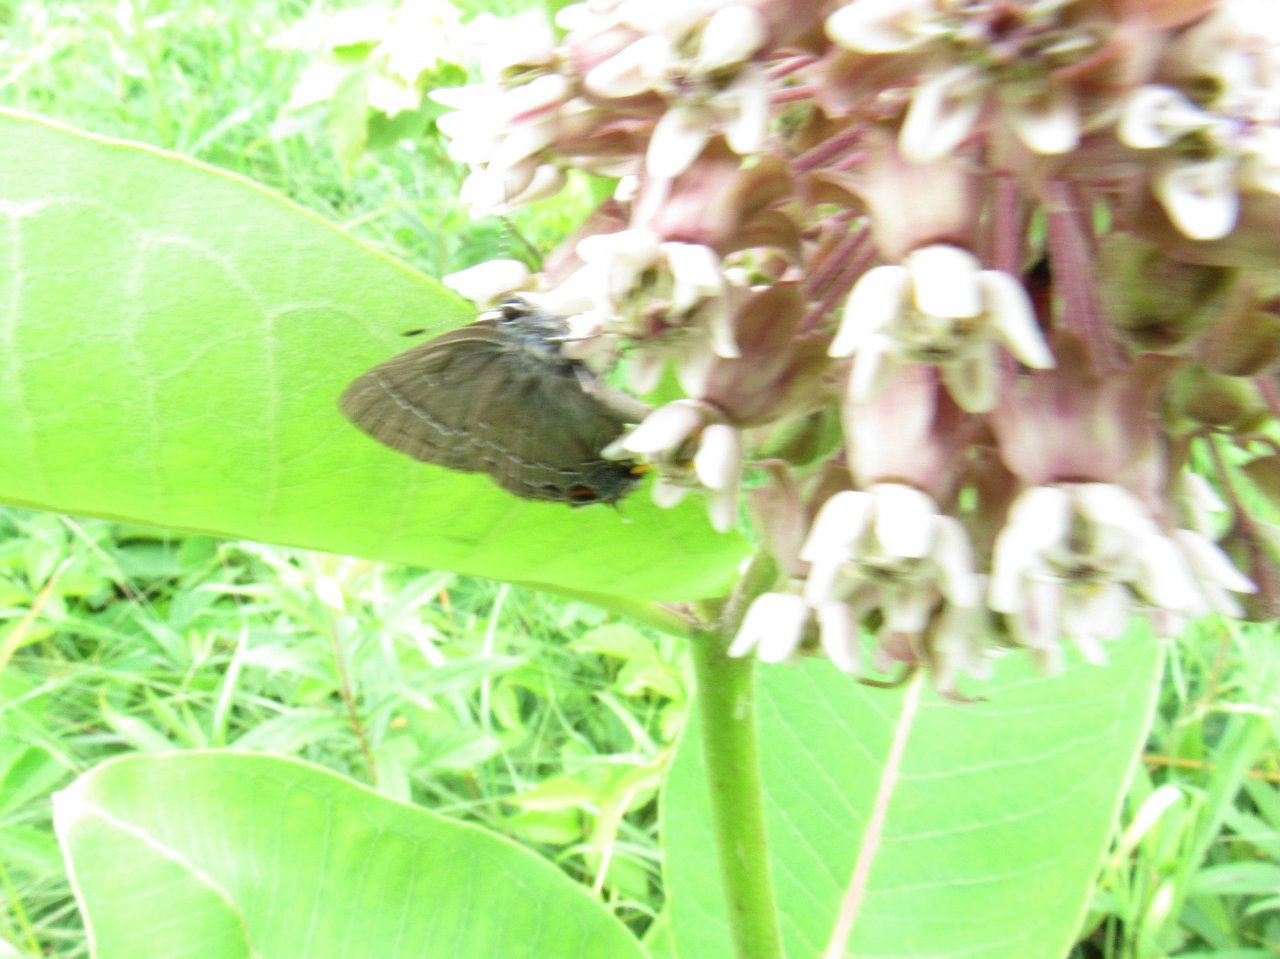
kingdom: Animalia
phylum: Arthropoda
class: Insecta
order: Lepidoptera
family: Lycaenidae
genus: Satyrium
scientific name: Satyrium calanus
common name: Banded Hairstreak
